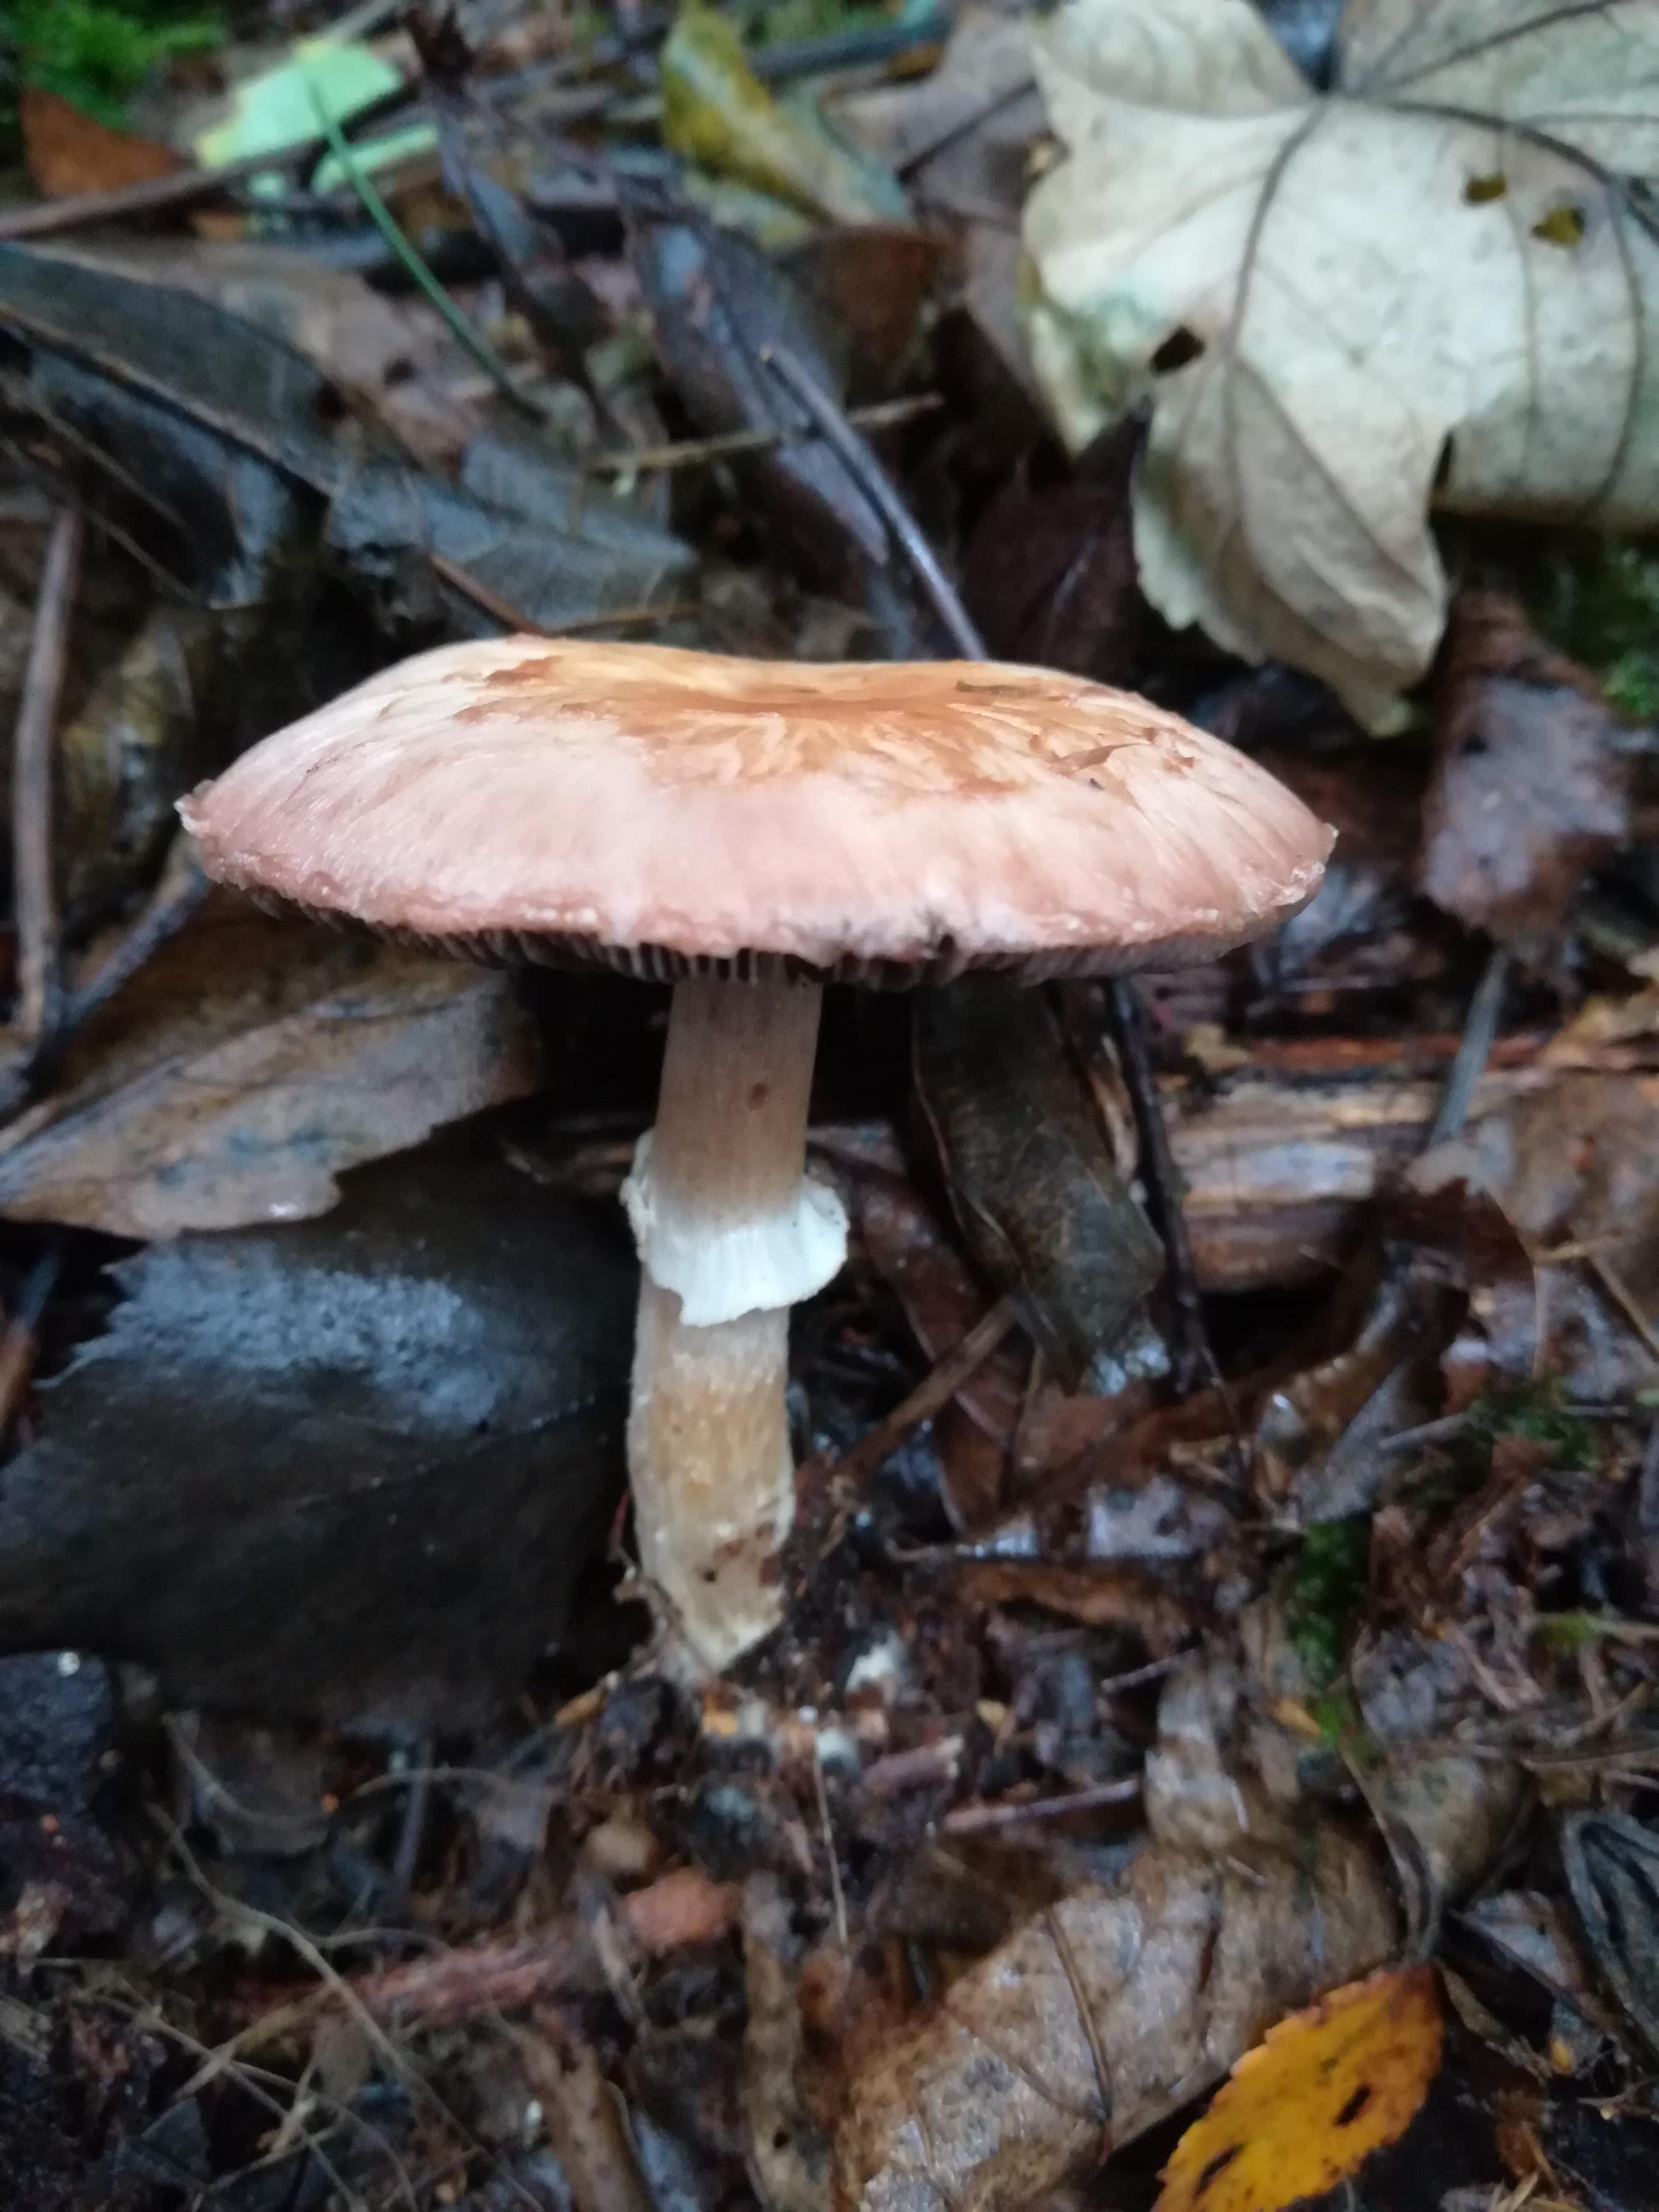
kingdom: Fungi
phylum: Basidiomycota
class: Agaricomycetes
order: Agaricales
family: Agaricaceae
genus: Agaricus
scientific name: Agaricus
